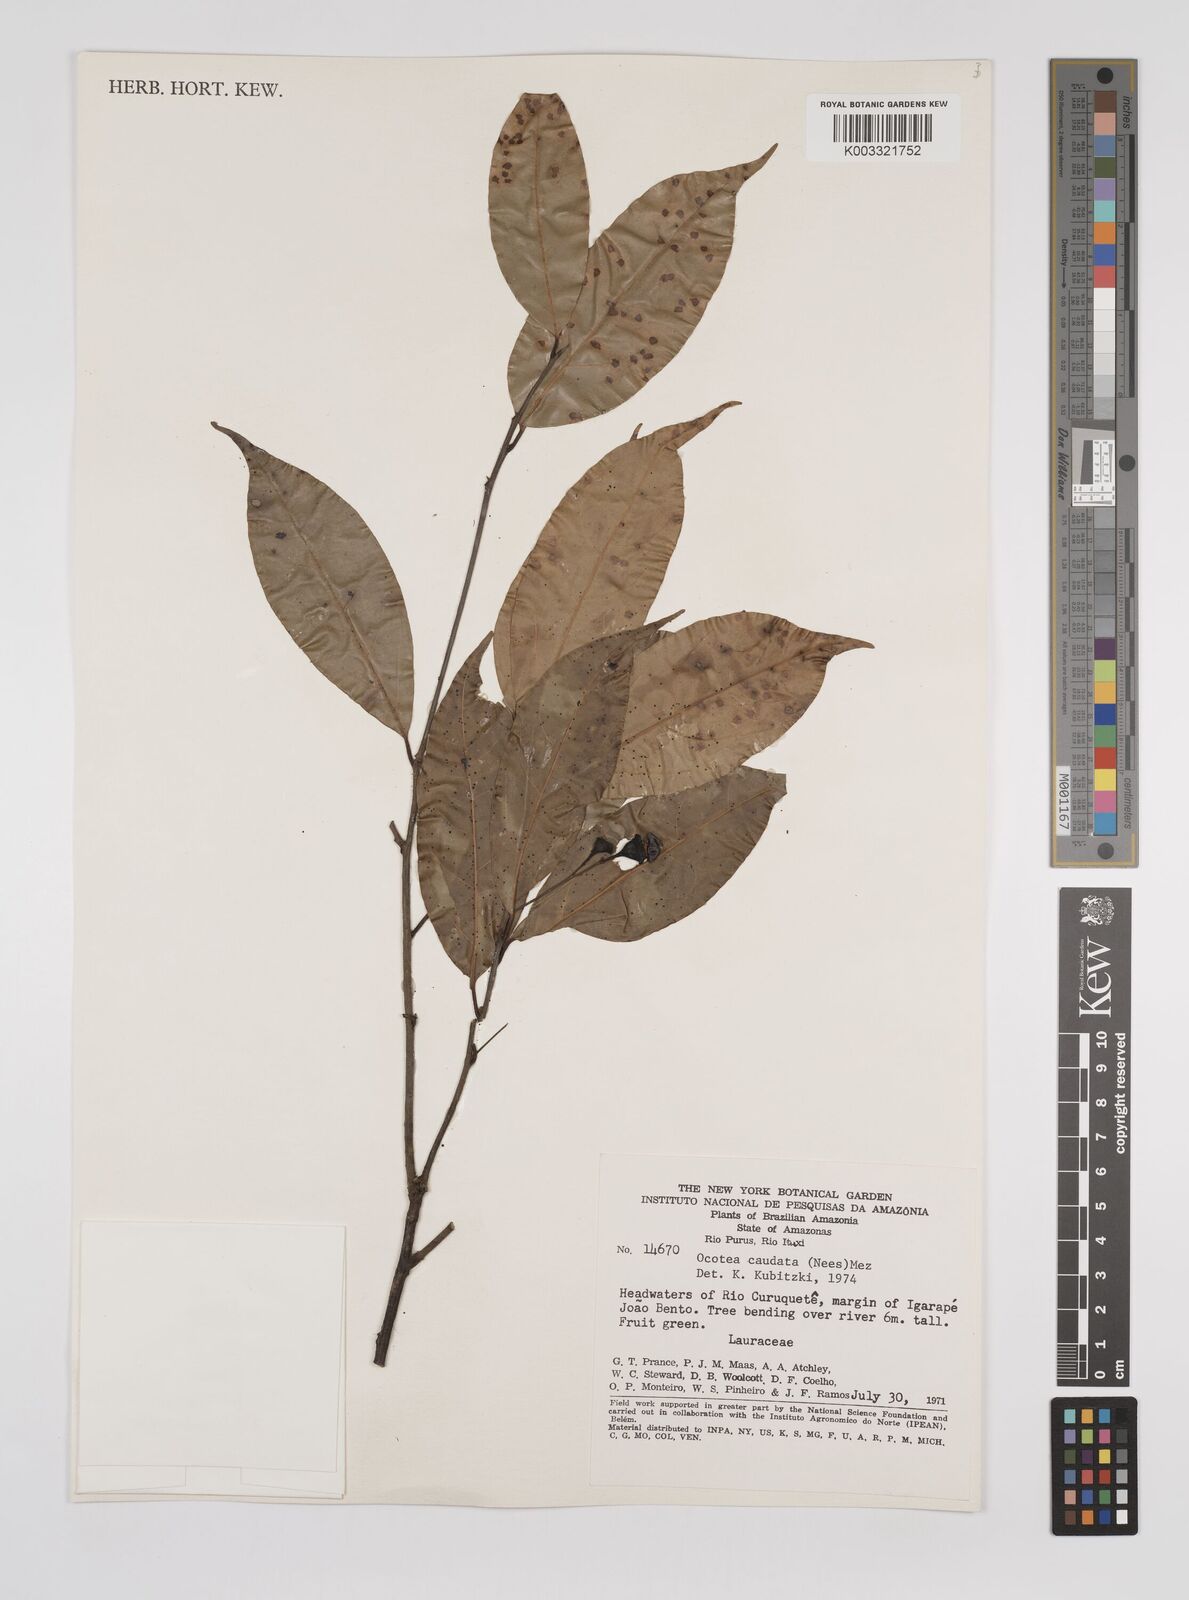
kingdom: Plantae
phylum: Tracheophyta
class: Magnoliopsida
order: Laurales
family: Lauraceae
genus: Ocotea
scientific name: Ocotea leptobotra
